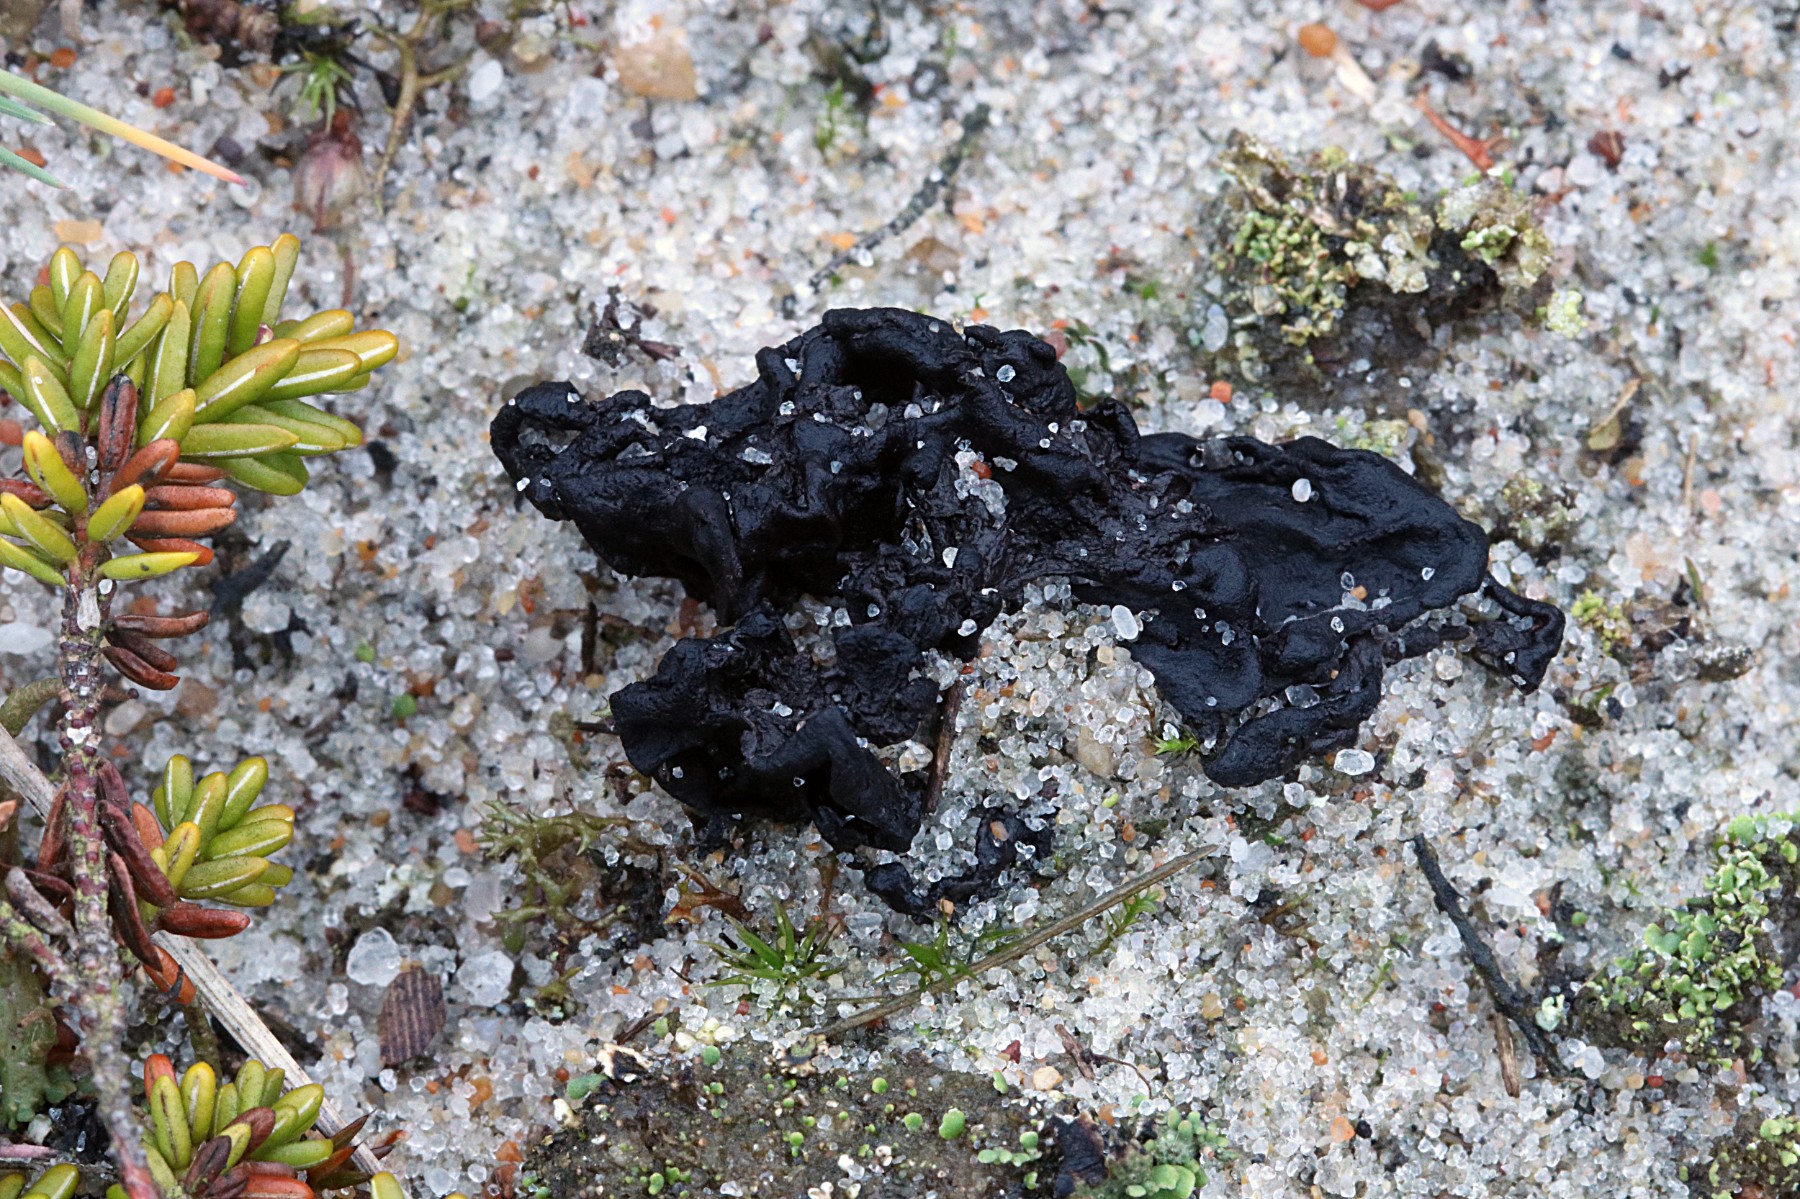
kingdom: Fungi
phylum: Ascomycota
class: Geoglossomycetes
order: Geoglossales
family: Geoglossaceae
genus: Sabuloglossum
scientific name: Sabuloglossum arenarium
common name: klit-jordtunge
